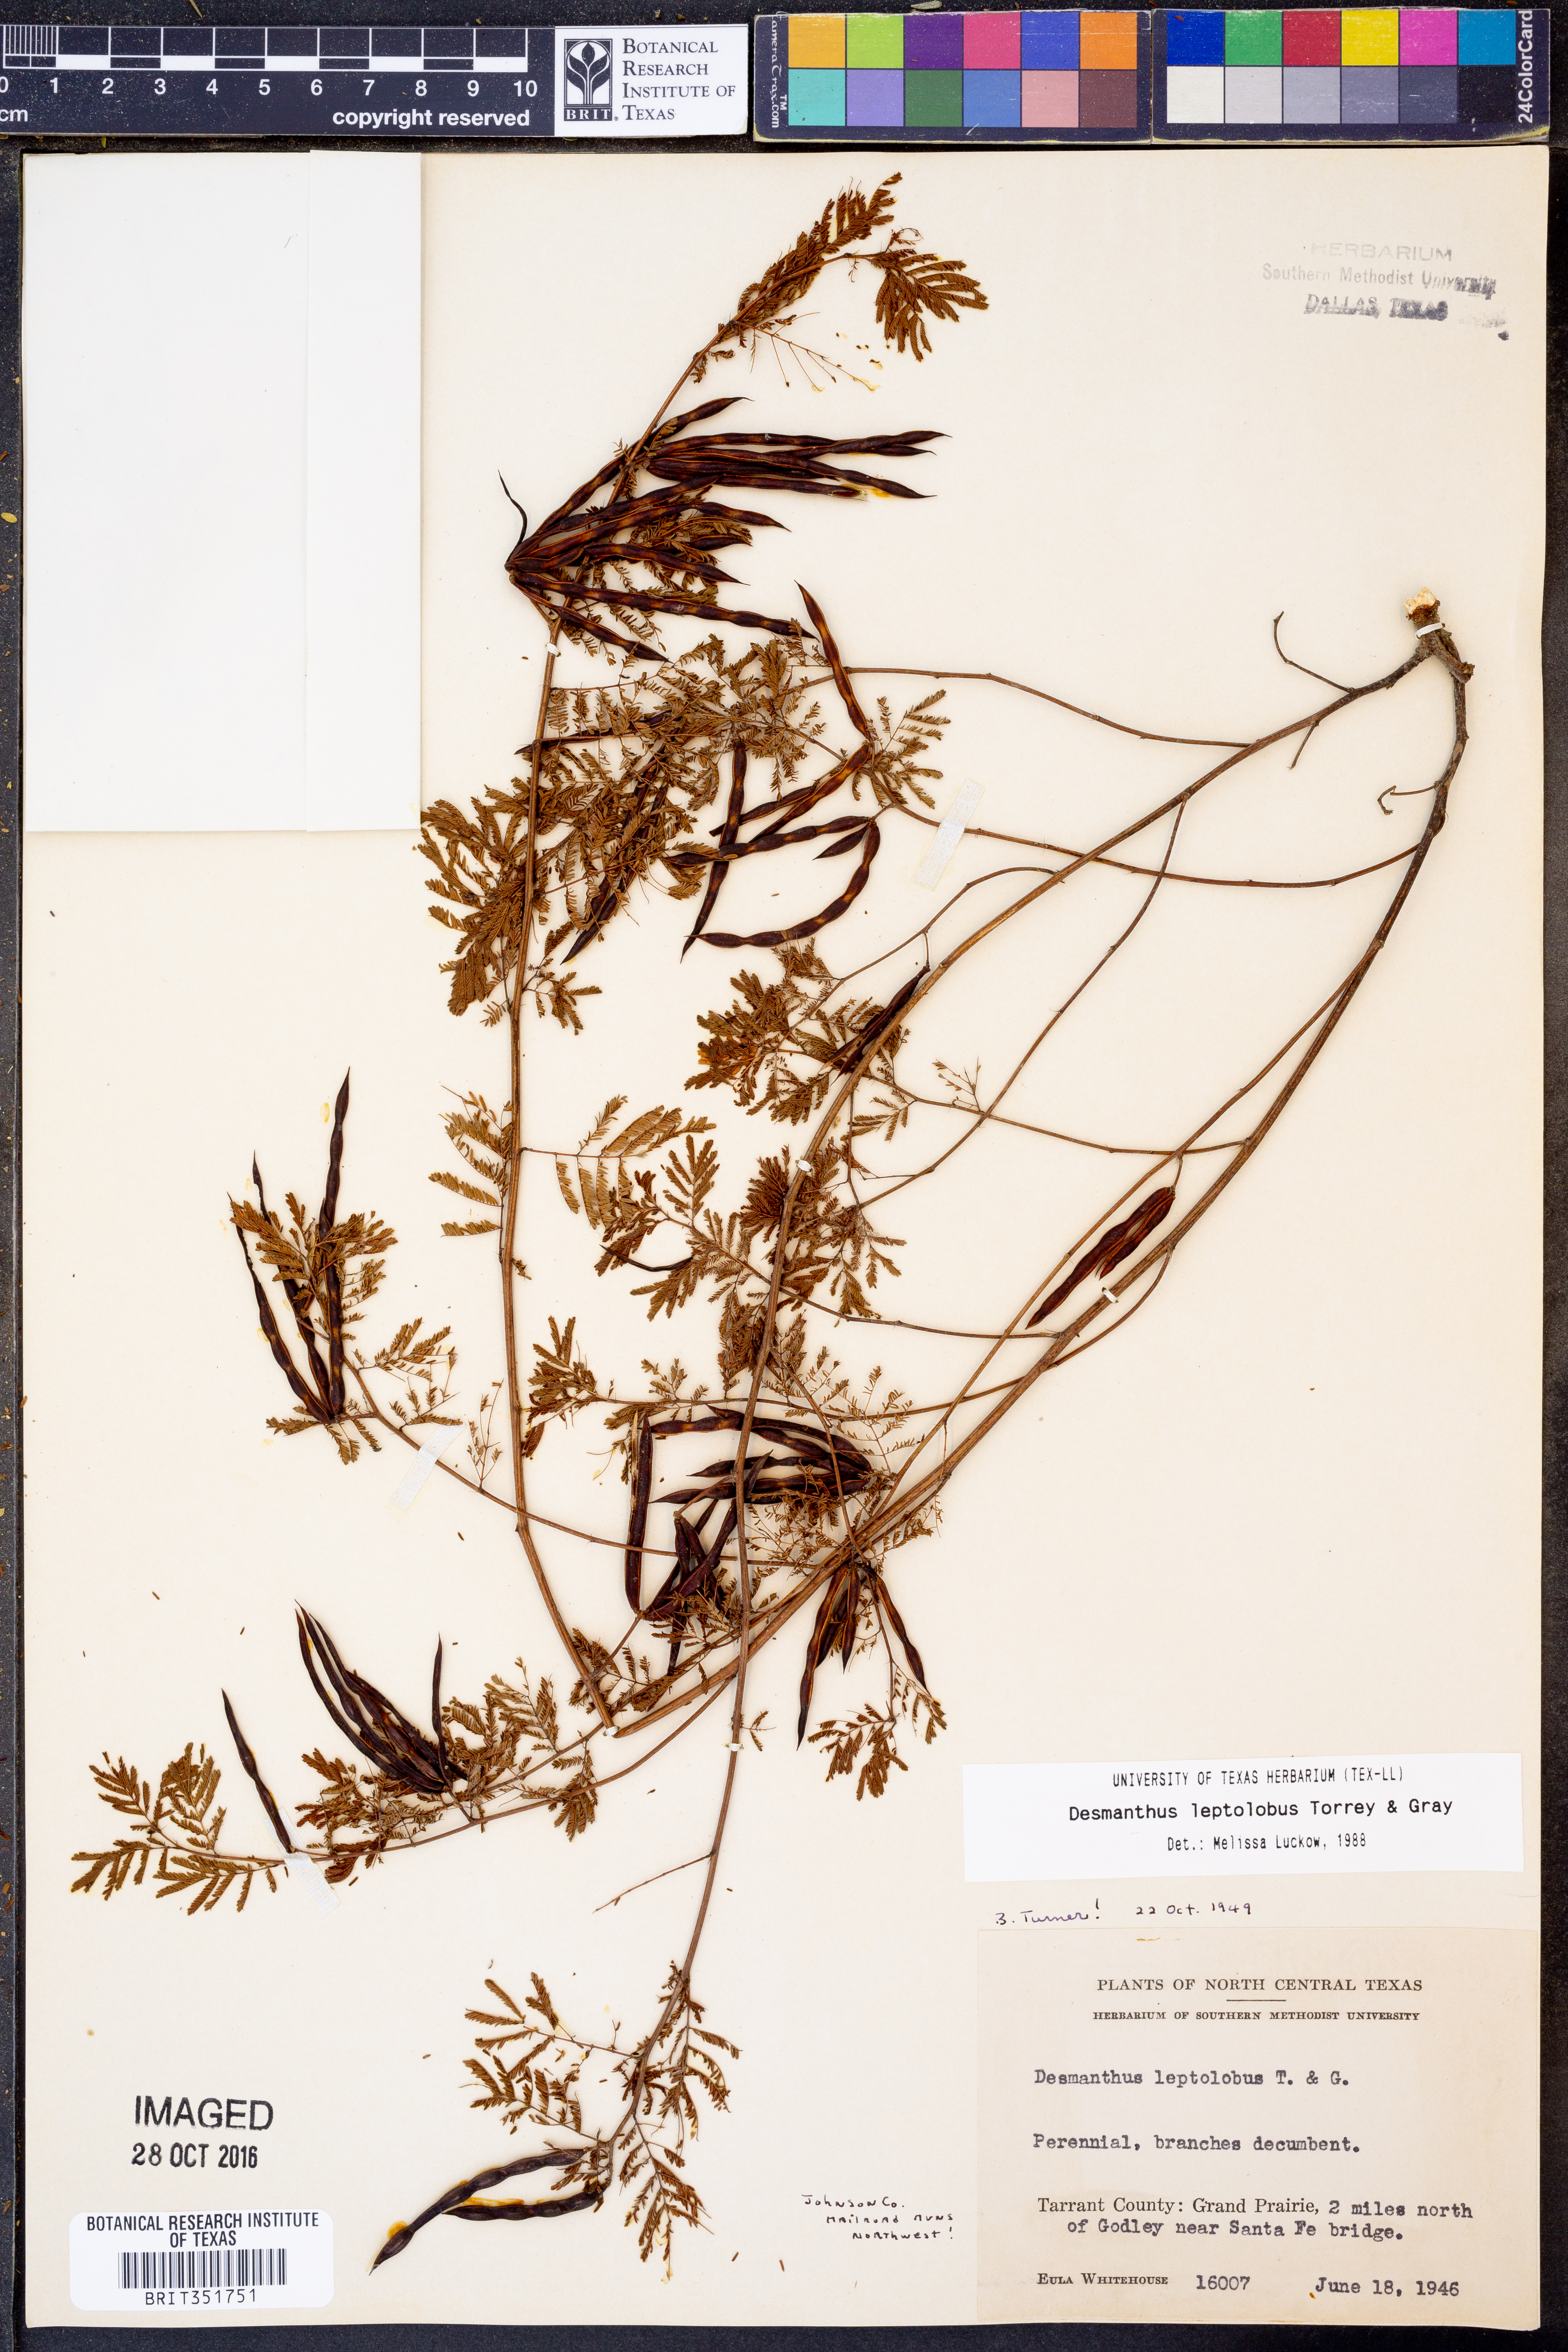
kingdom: Plantae
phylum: Tracheophyta
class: Magnoliopsida
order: Fabales
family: Fabaceae
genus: Desmanthus
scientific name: Desmanthus leptolobus
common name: Prairie-mimosa
